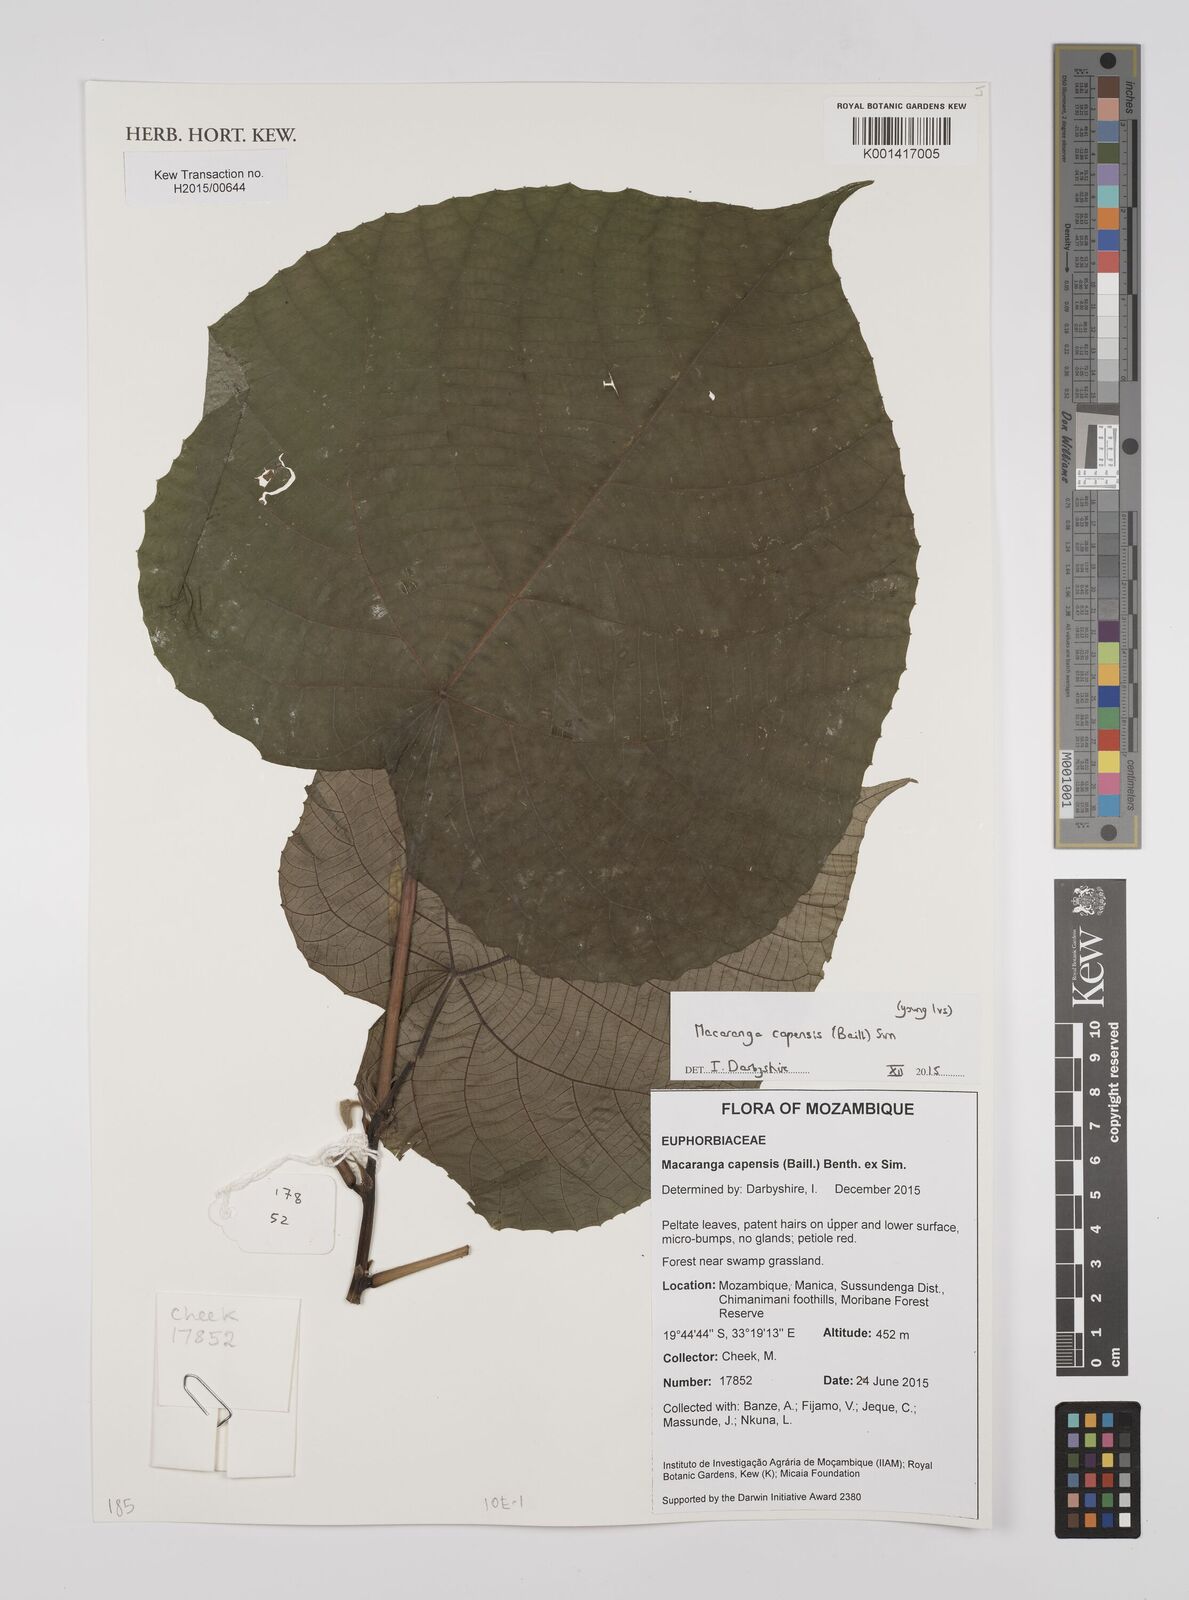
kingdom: Plantae
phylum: Tracheophyta
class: Magnoliopsida
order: Malpighiales
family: Euphorbiaceae
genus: Macaranga
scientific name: Macaranga capensis
